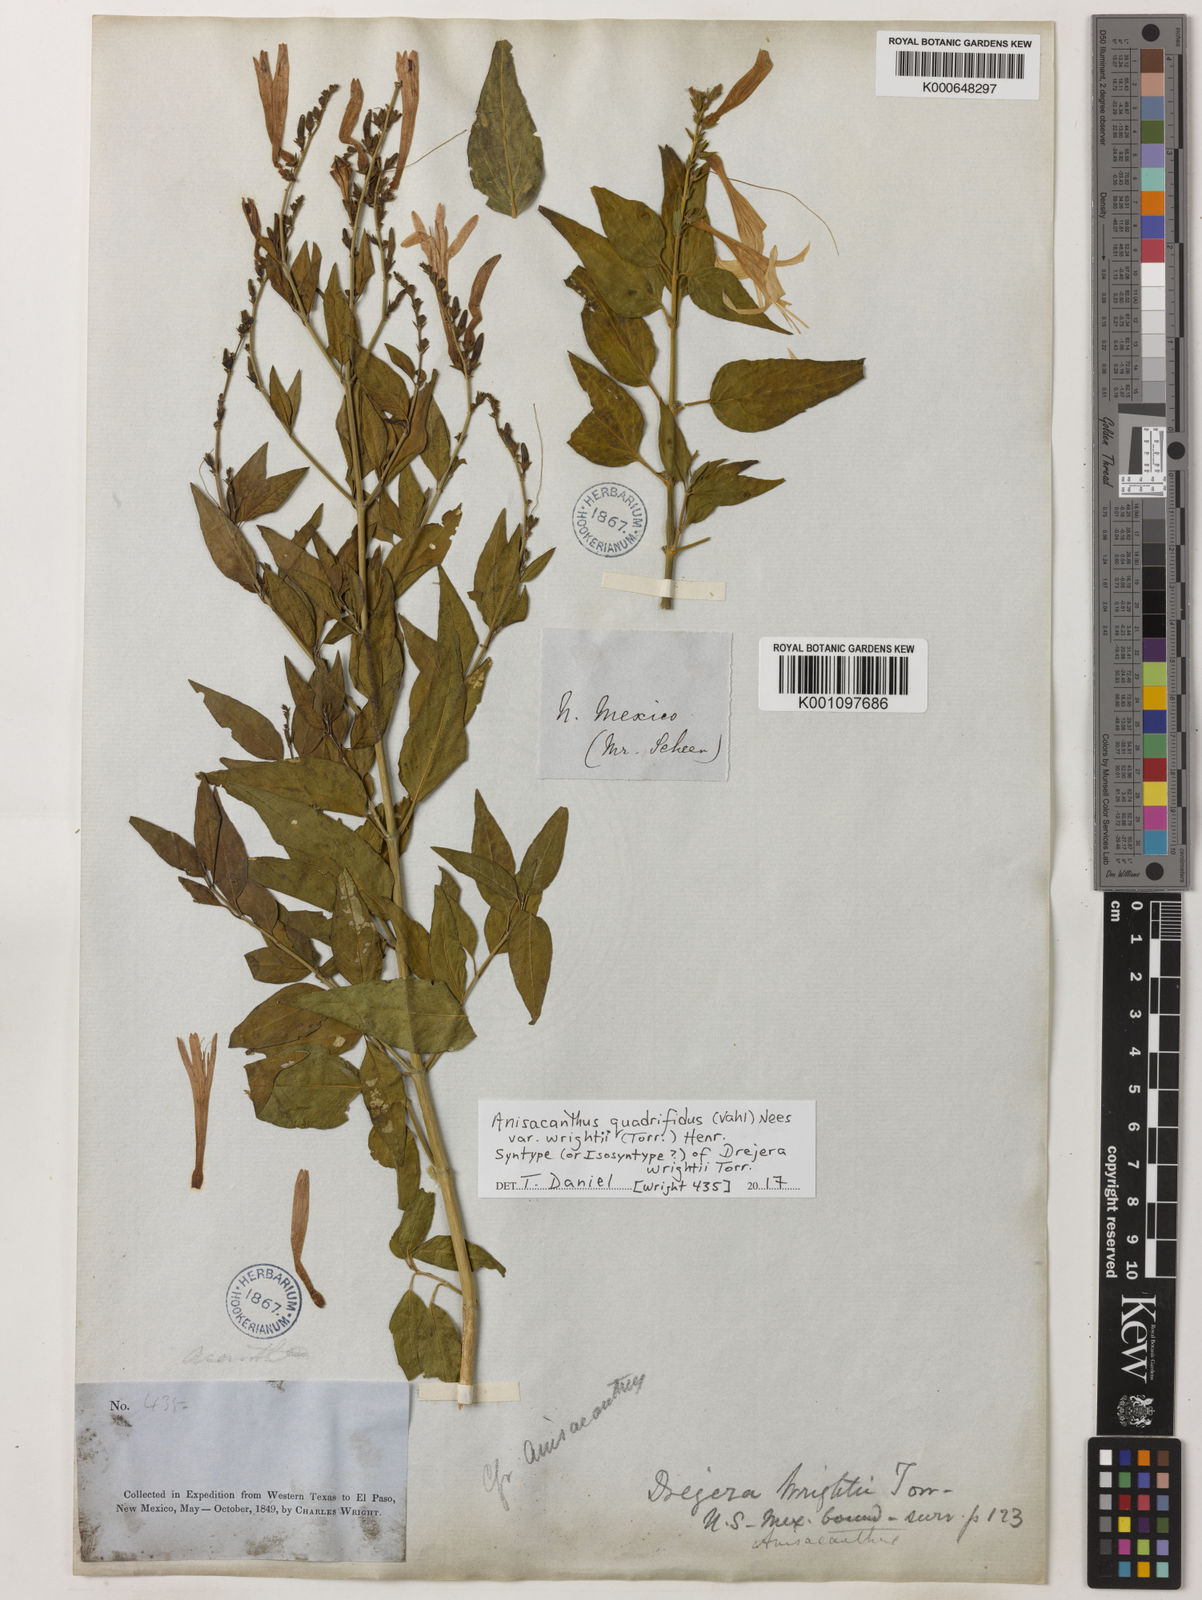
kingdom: Plantae
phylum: Tracheophyta
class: Magnoliopsida
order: Lamiales
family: Acanthaceae
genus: Anisacanthus
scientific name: Anisacanthus quadrifidus
